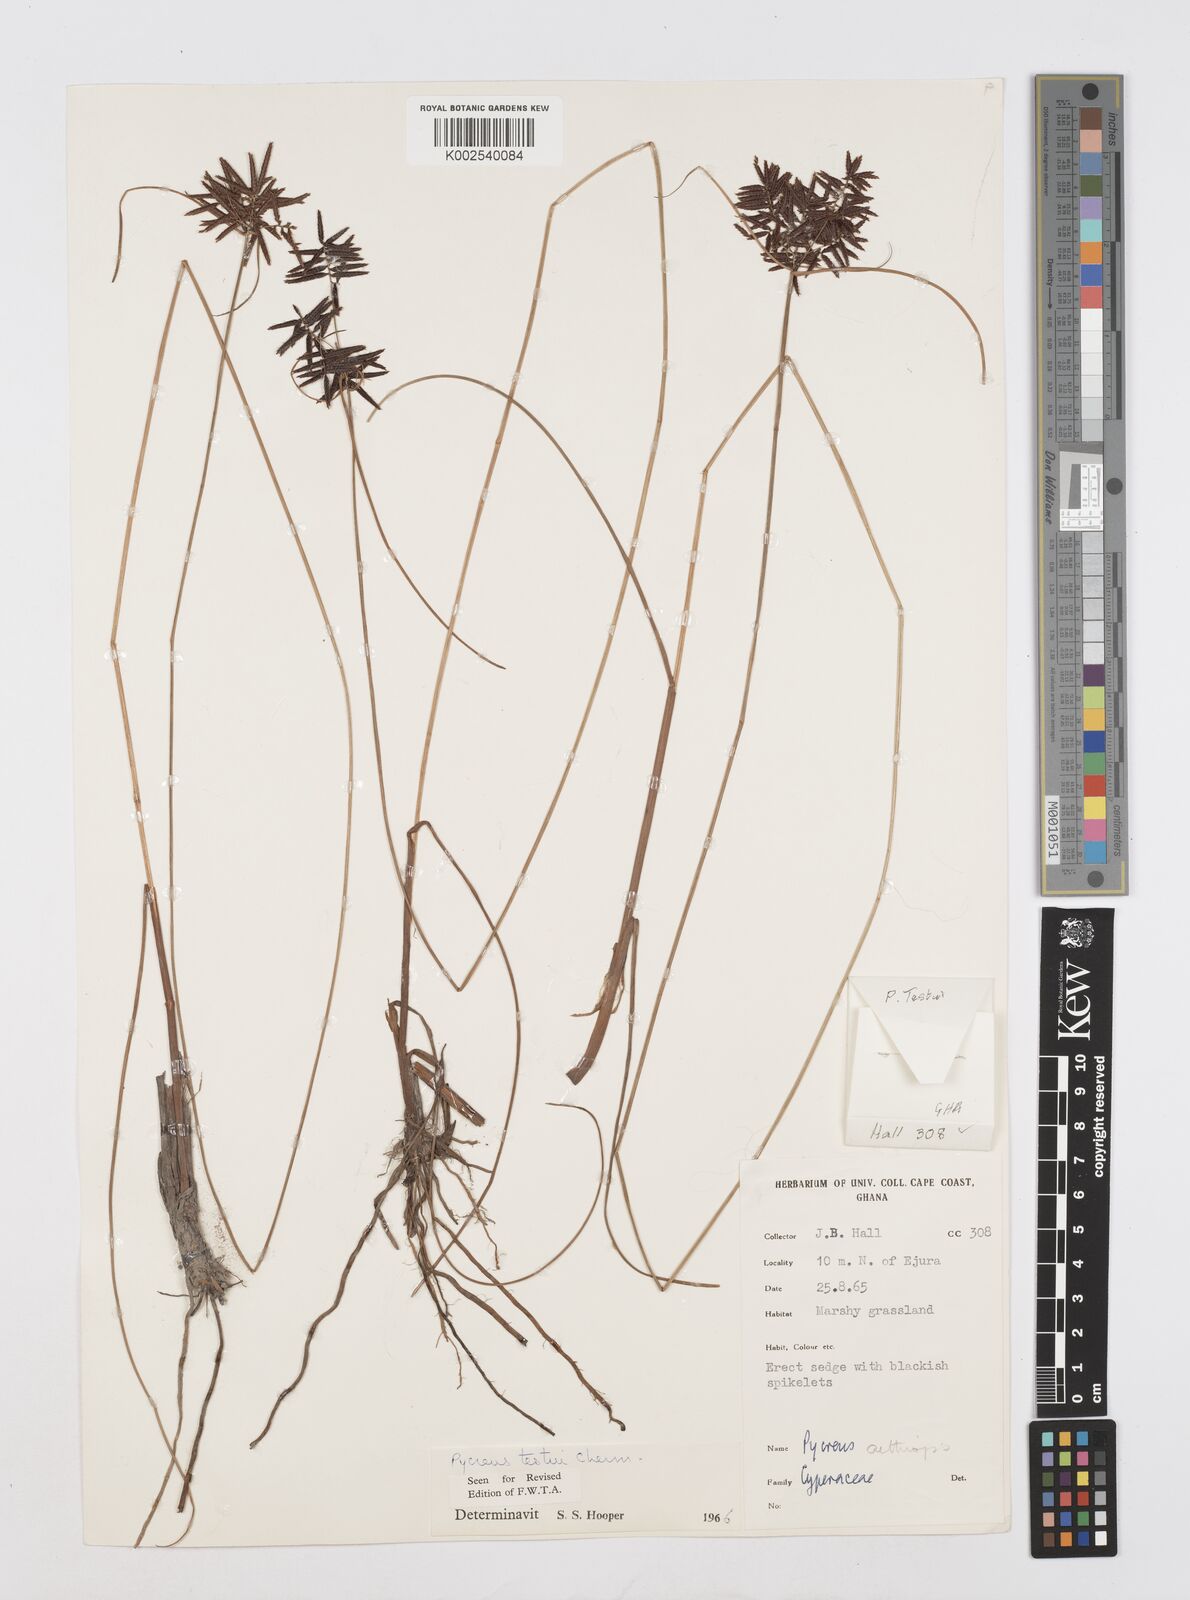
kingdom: Plantae
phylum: Tracheophyta
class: Liliopsida
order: Poales
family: Cyperaceae
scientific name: Cyperaceae
